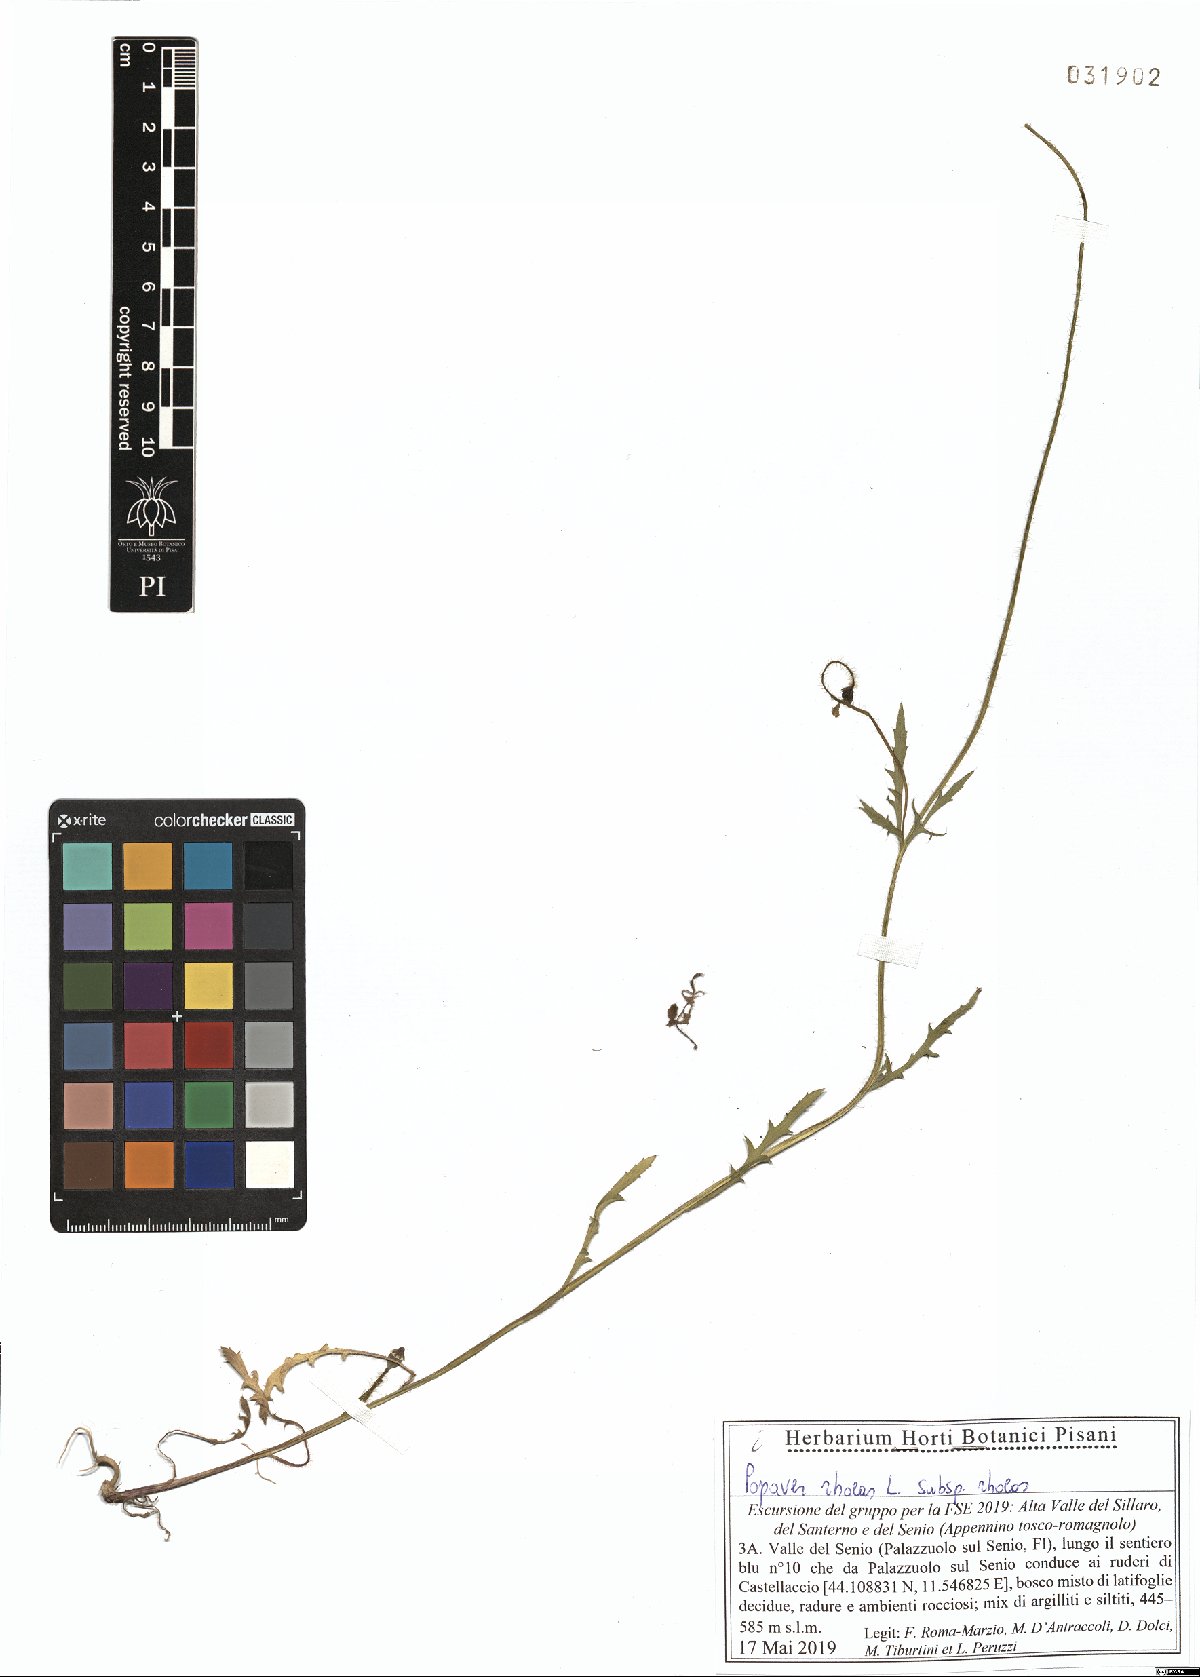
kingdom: Plantae
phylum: Tracheophyta
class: Magnoliopsida
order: Ranunculales
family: Papaveraceae
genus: Papaver
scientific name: Papaver rhoeas
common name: Corn poppy
